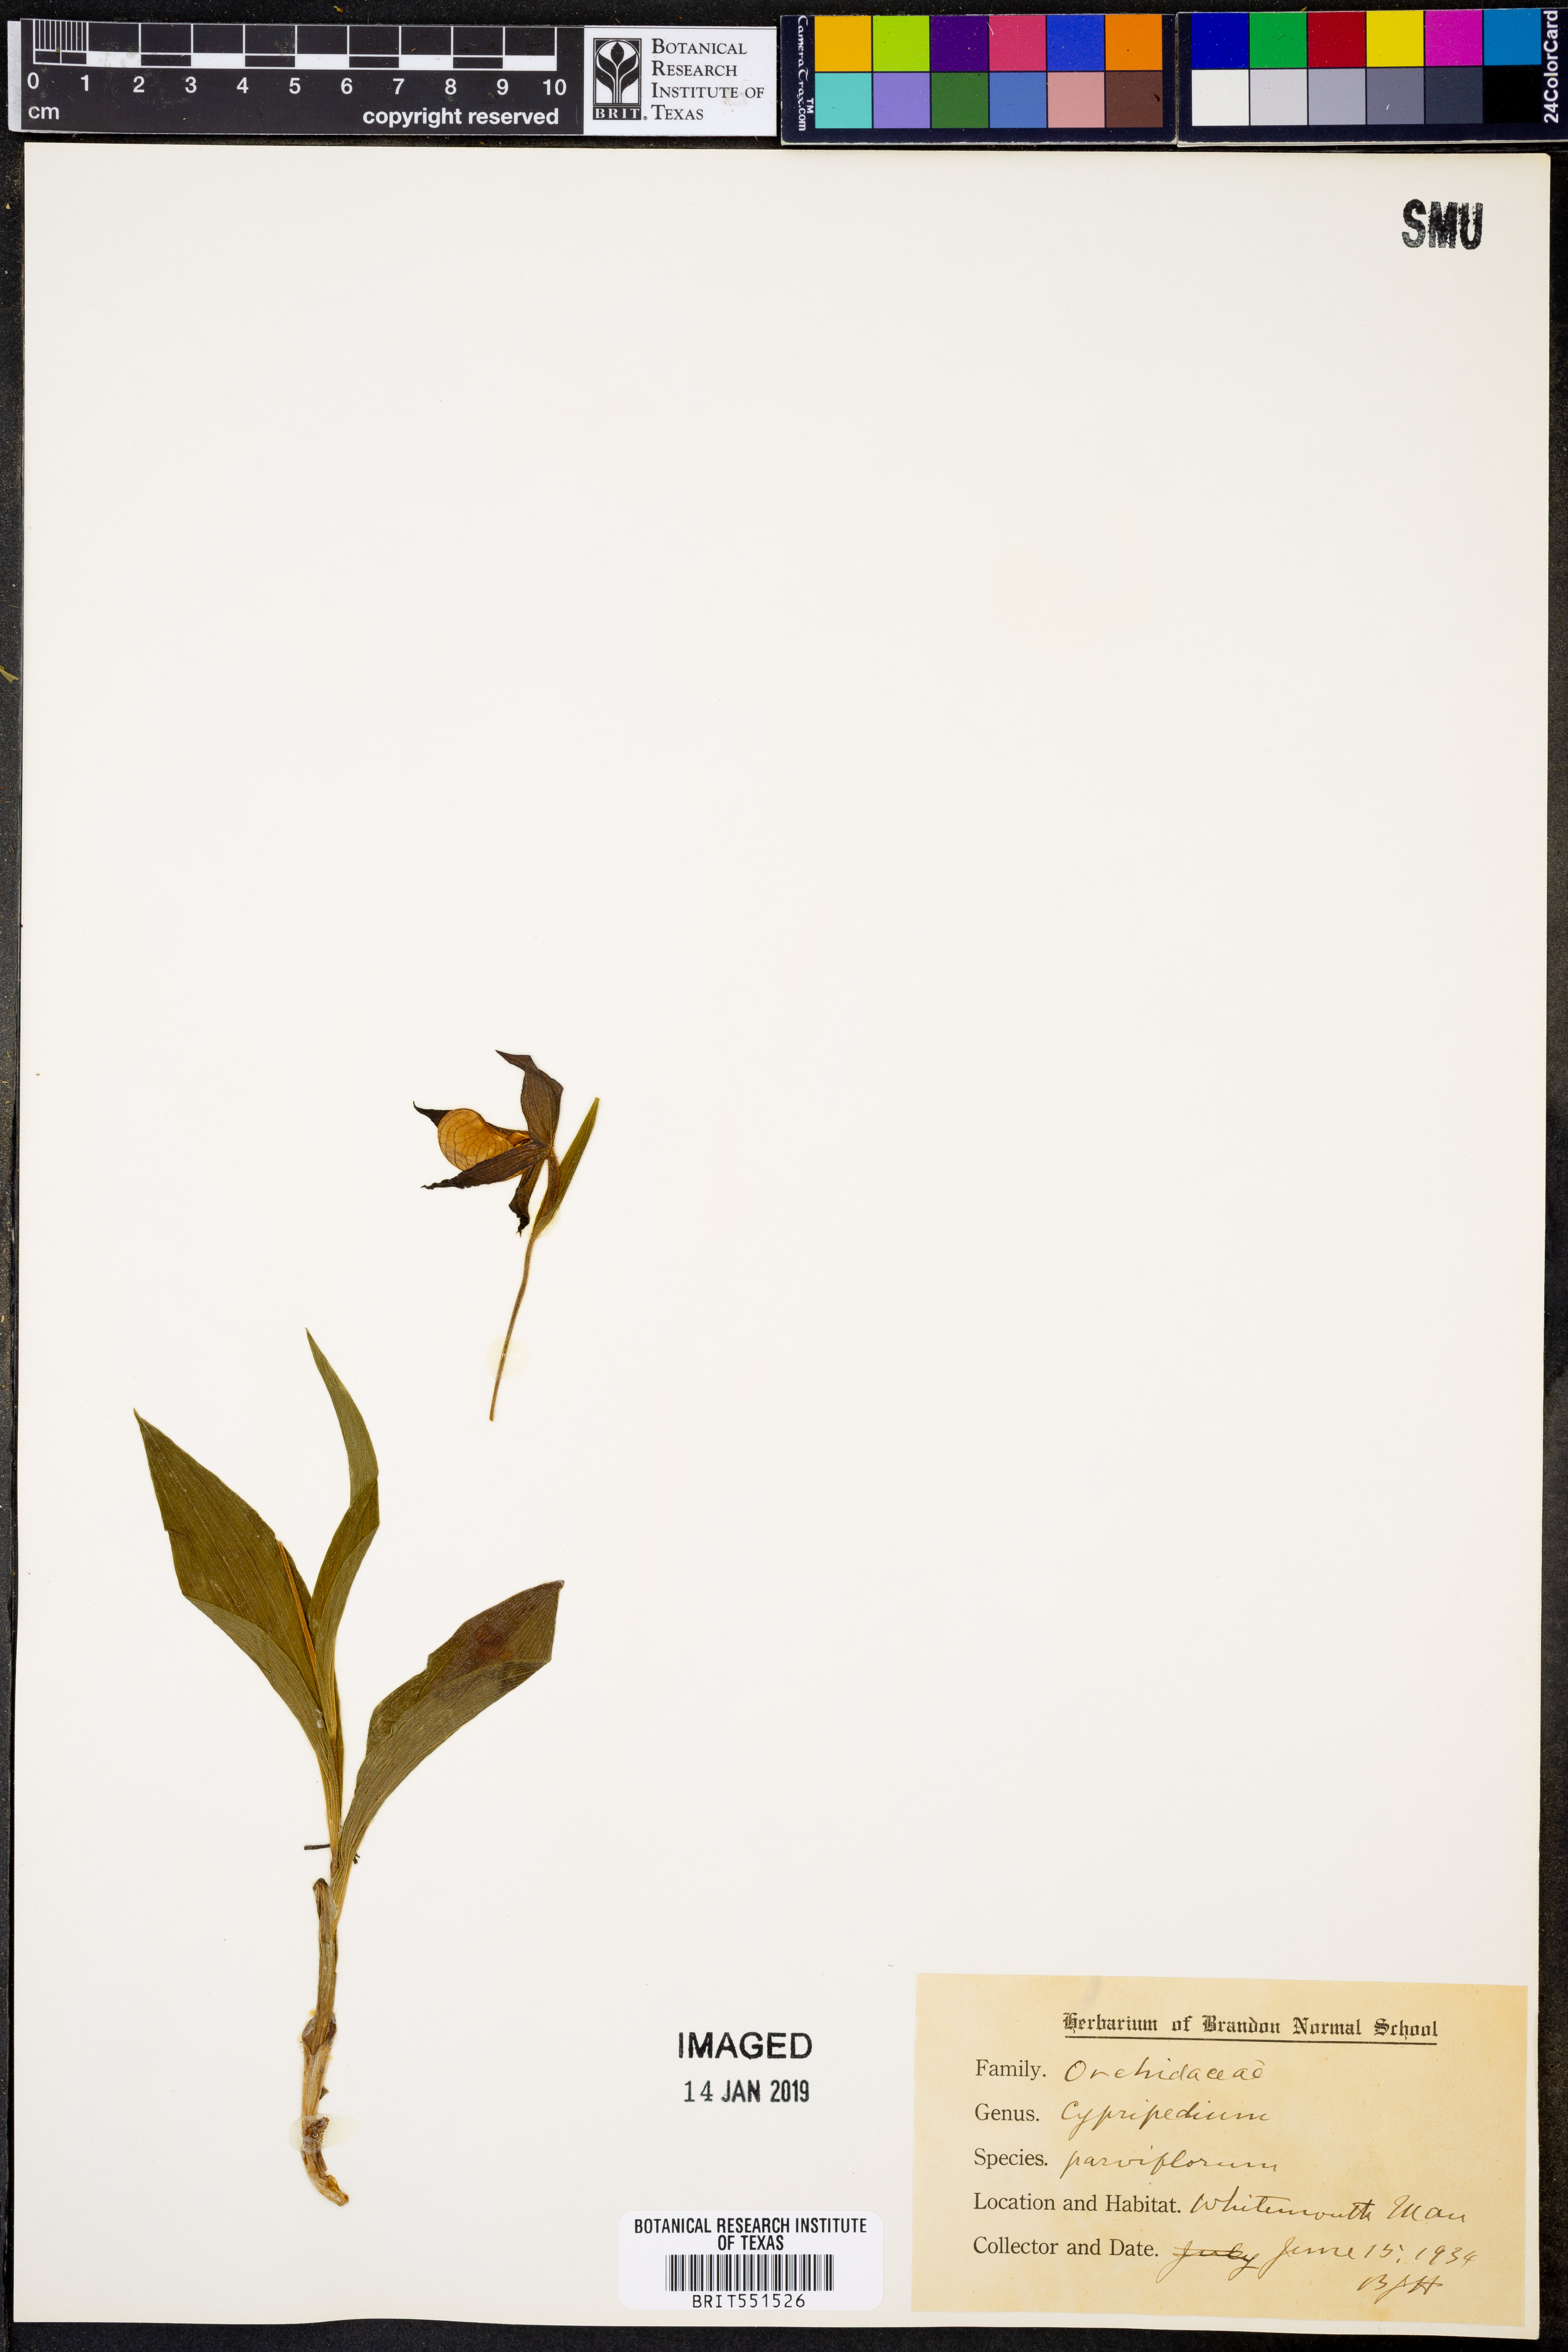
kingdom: Plantae
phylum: Tracheophyta
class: Liliopsida
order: Asparagales
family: Orchidaceae
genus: Cypripedium
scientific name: Cypripedium parviflorum
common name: American yellow lady's-slipper
